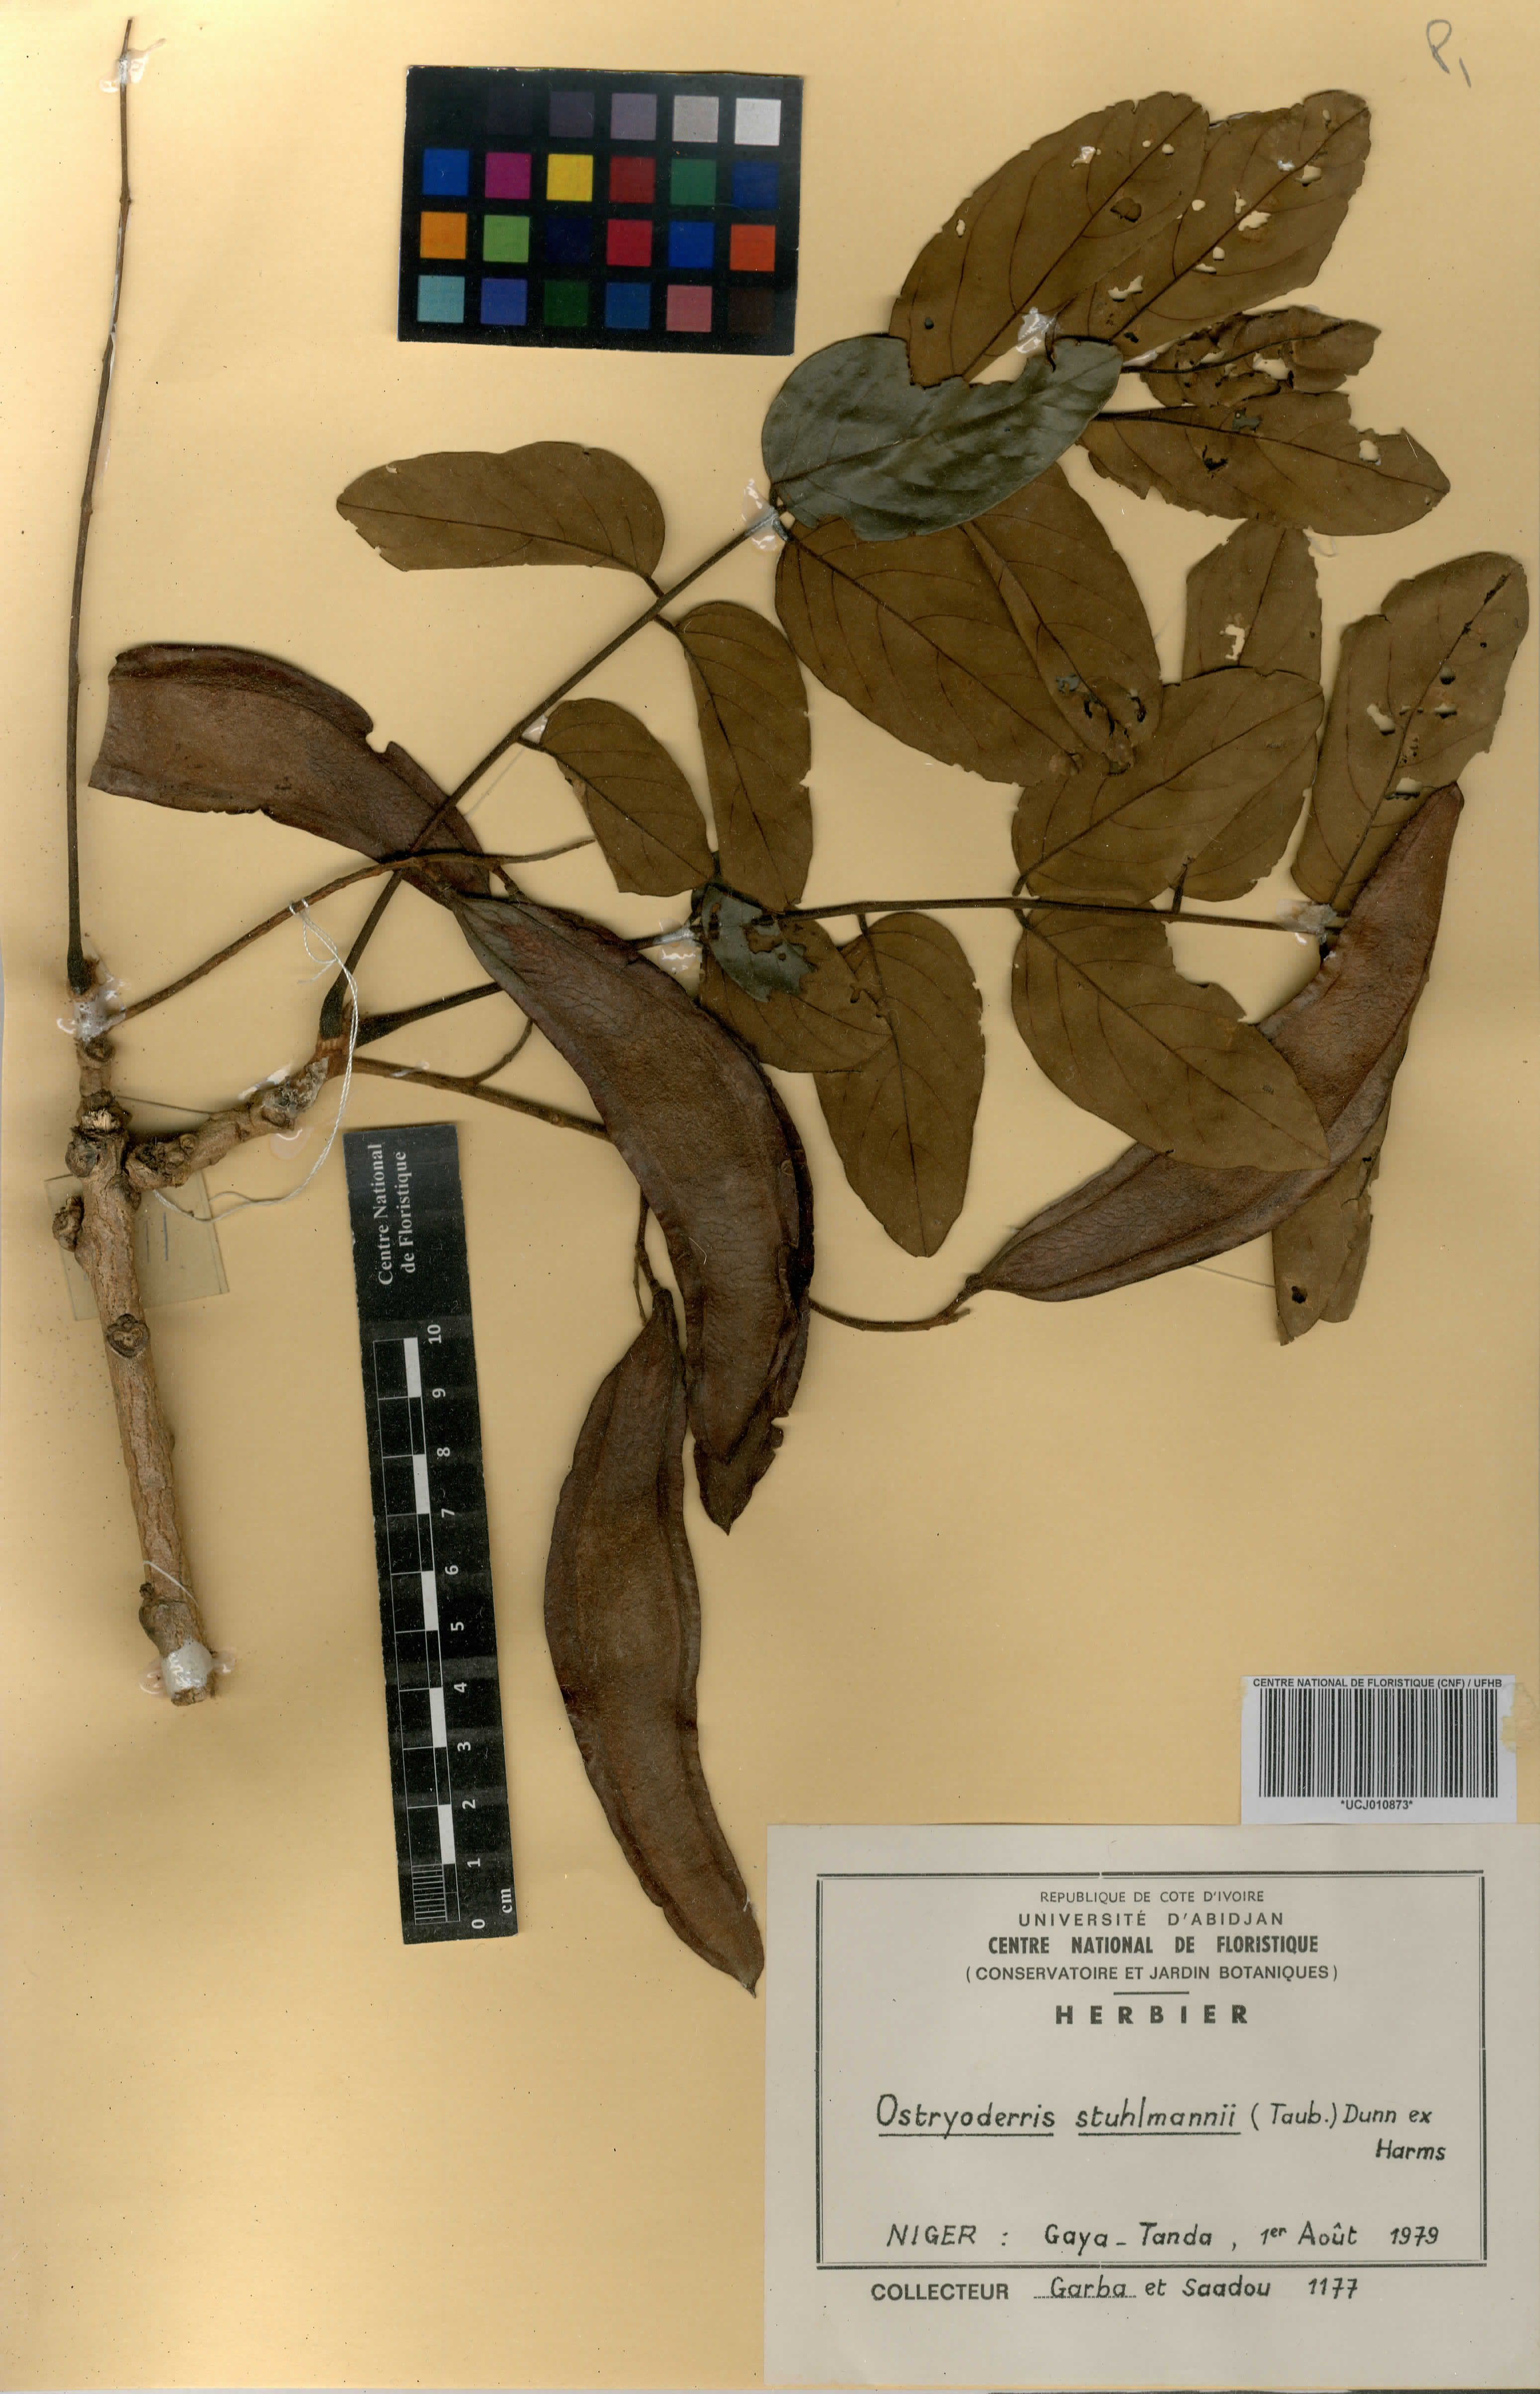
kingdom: Plantae
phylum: Tracheophyta
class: Magnoliopsida
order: Fabales
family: Fabaceae
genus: Aganope
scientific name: Aganope stuhlmannii
